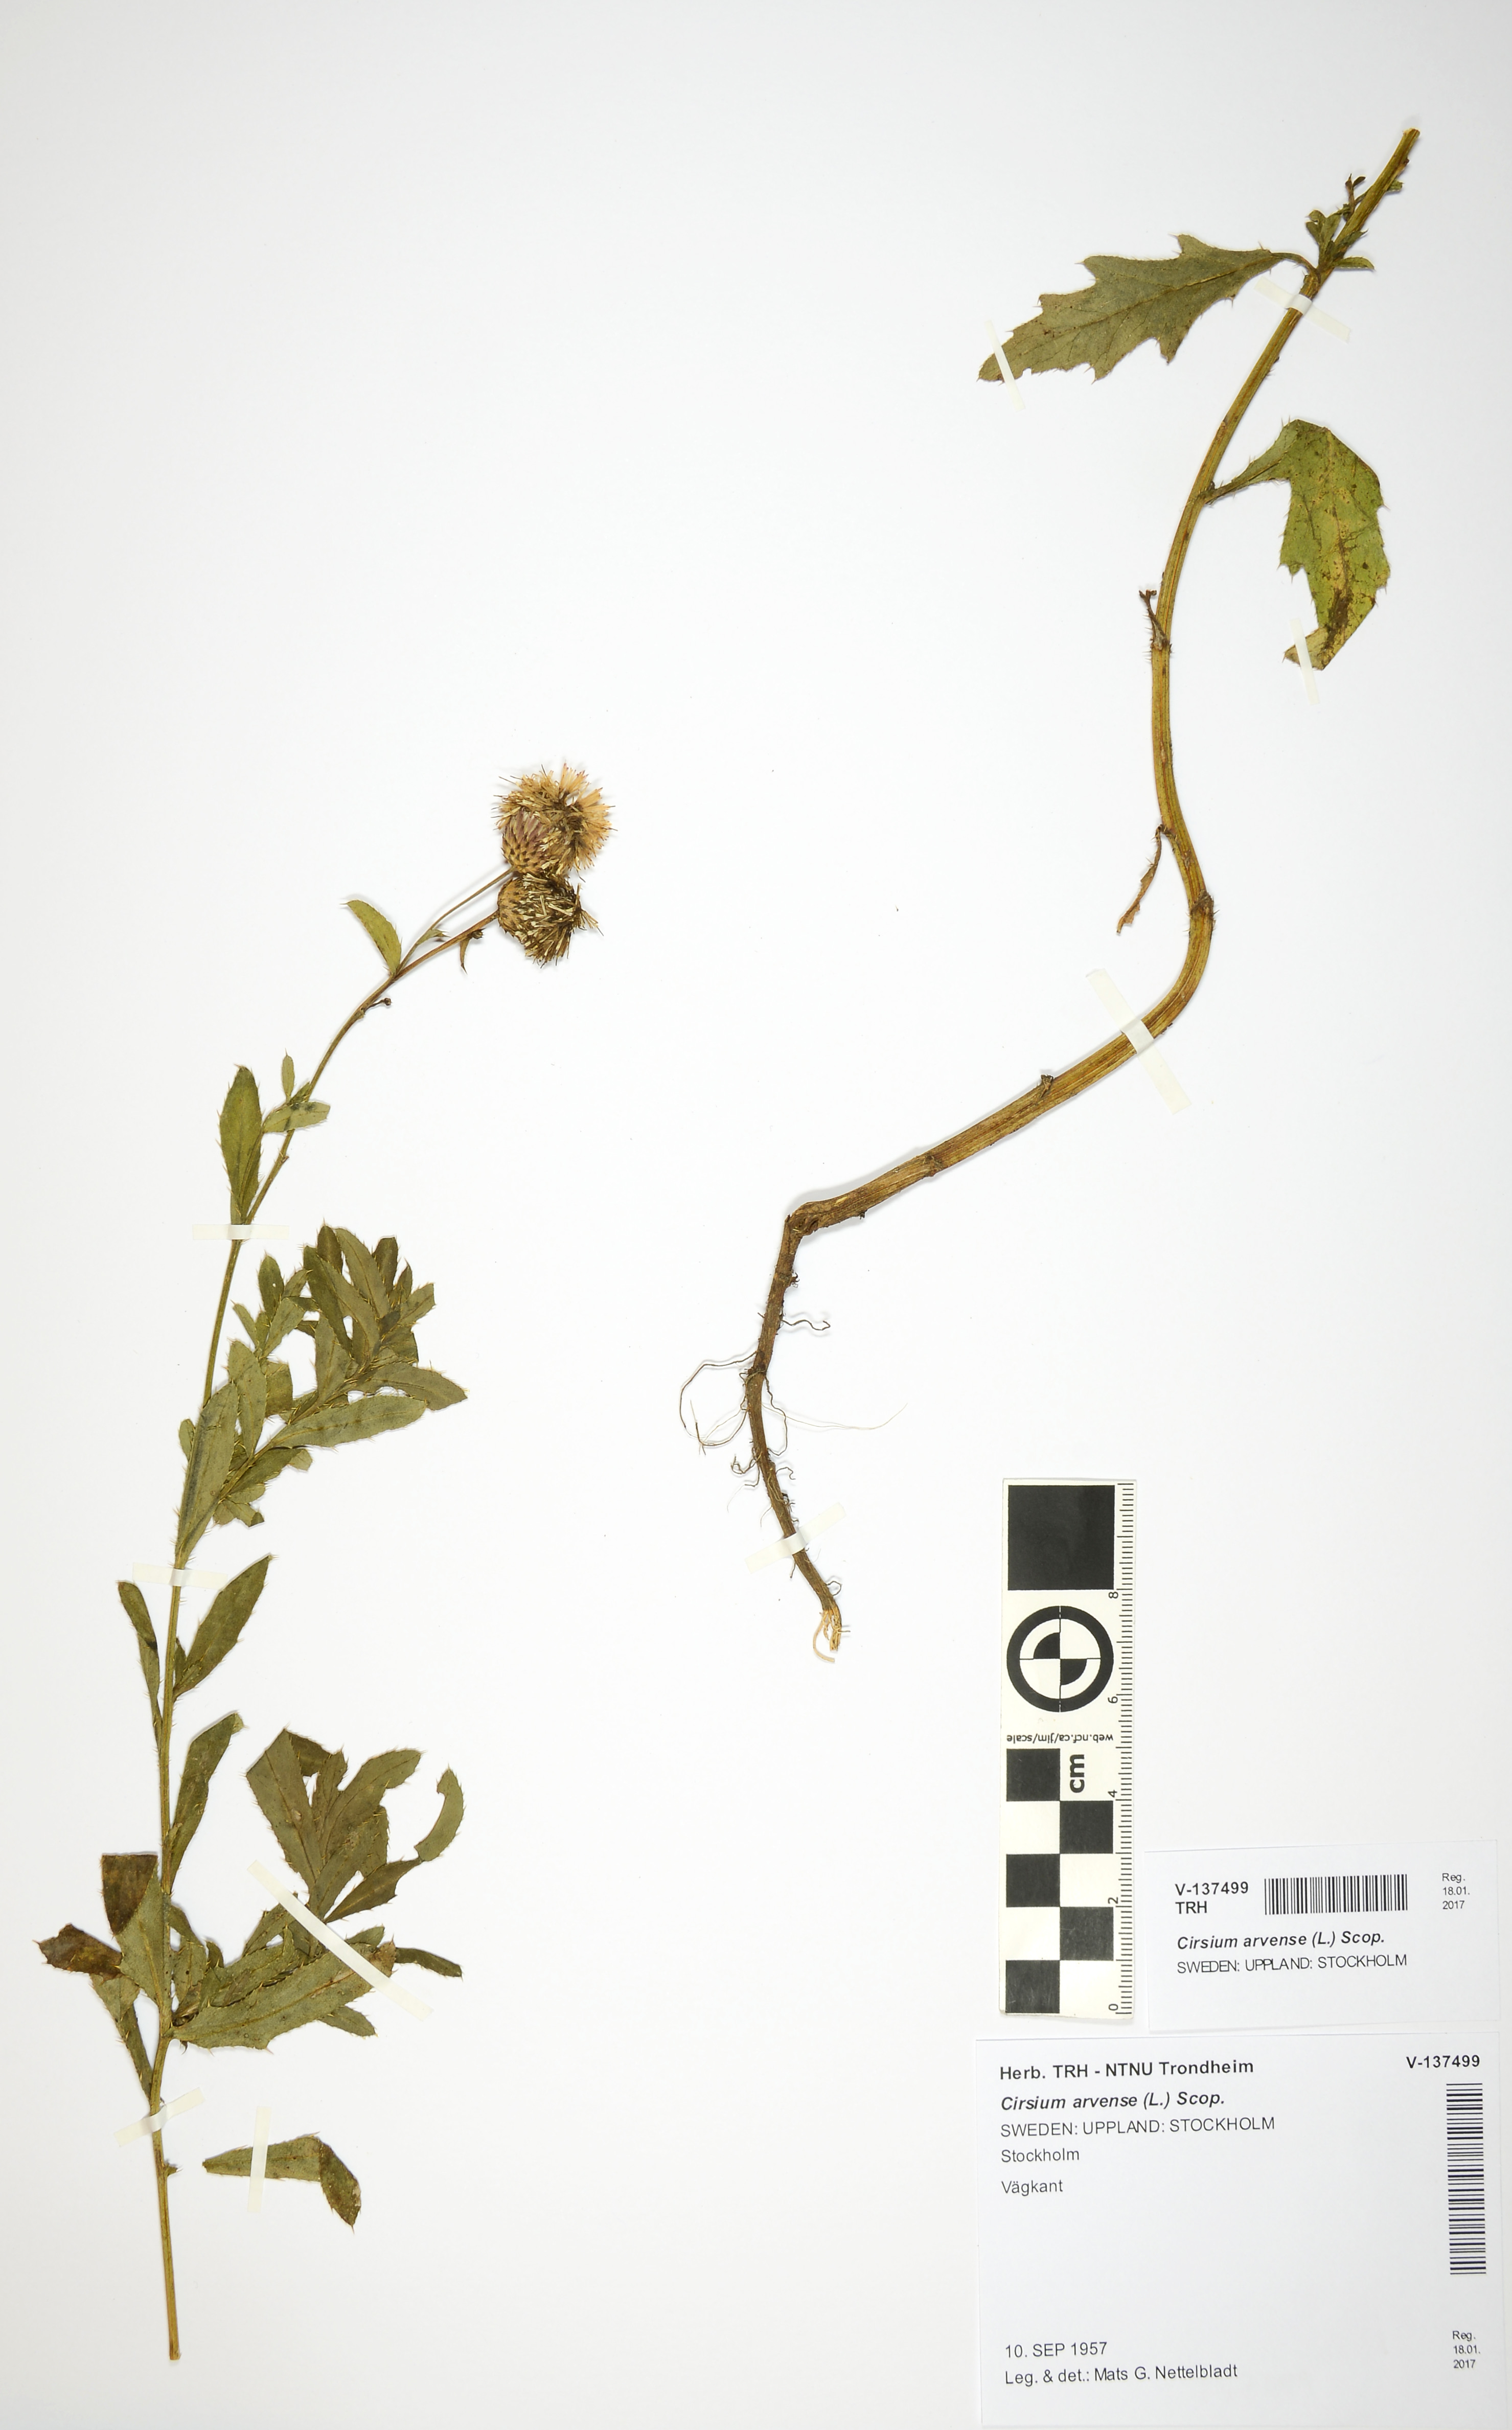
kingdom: Plantae
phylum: Tracheophyta
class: Magnoliopsida
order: Asterales
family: Asteraceae
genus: Cirsium
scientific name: Cirsium arvense
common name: Creeping thistle
